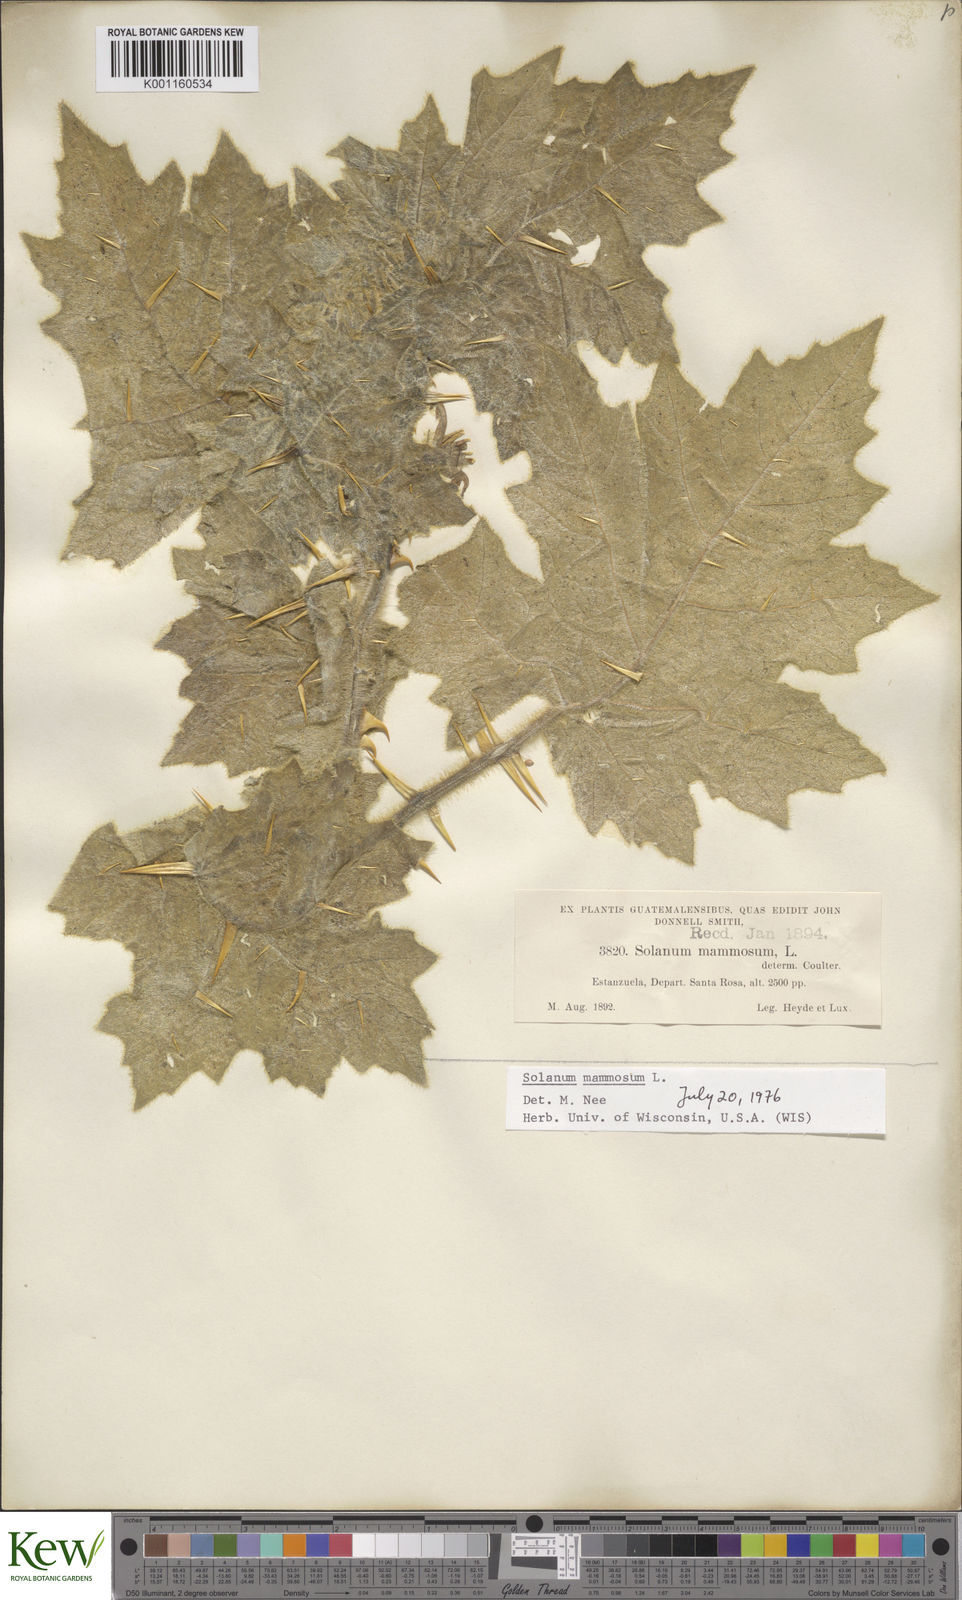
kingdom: Plantae
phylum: Tracheophyta
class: Magnoliopsida
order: Solanales
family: Solanaceae
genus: Solanum
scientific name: Solanum mammosum
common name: Nipple fruit
